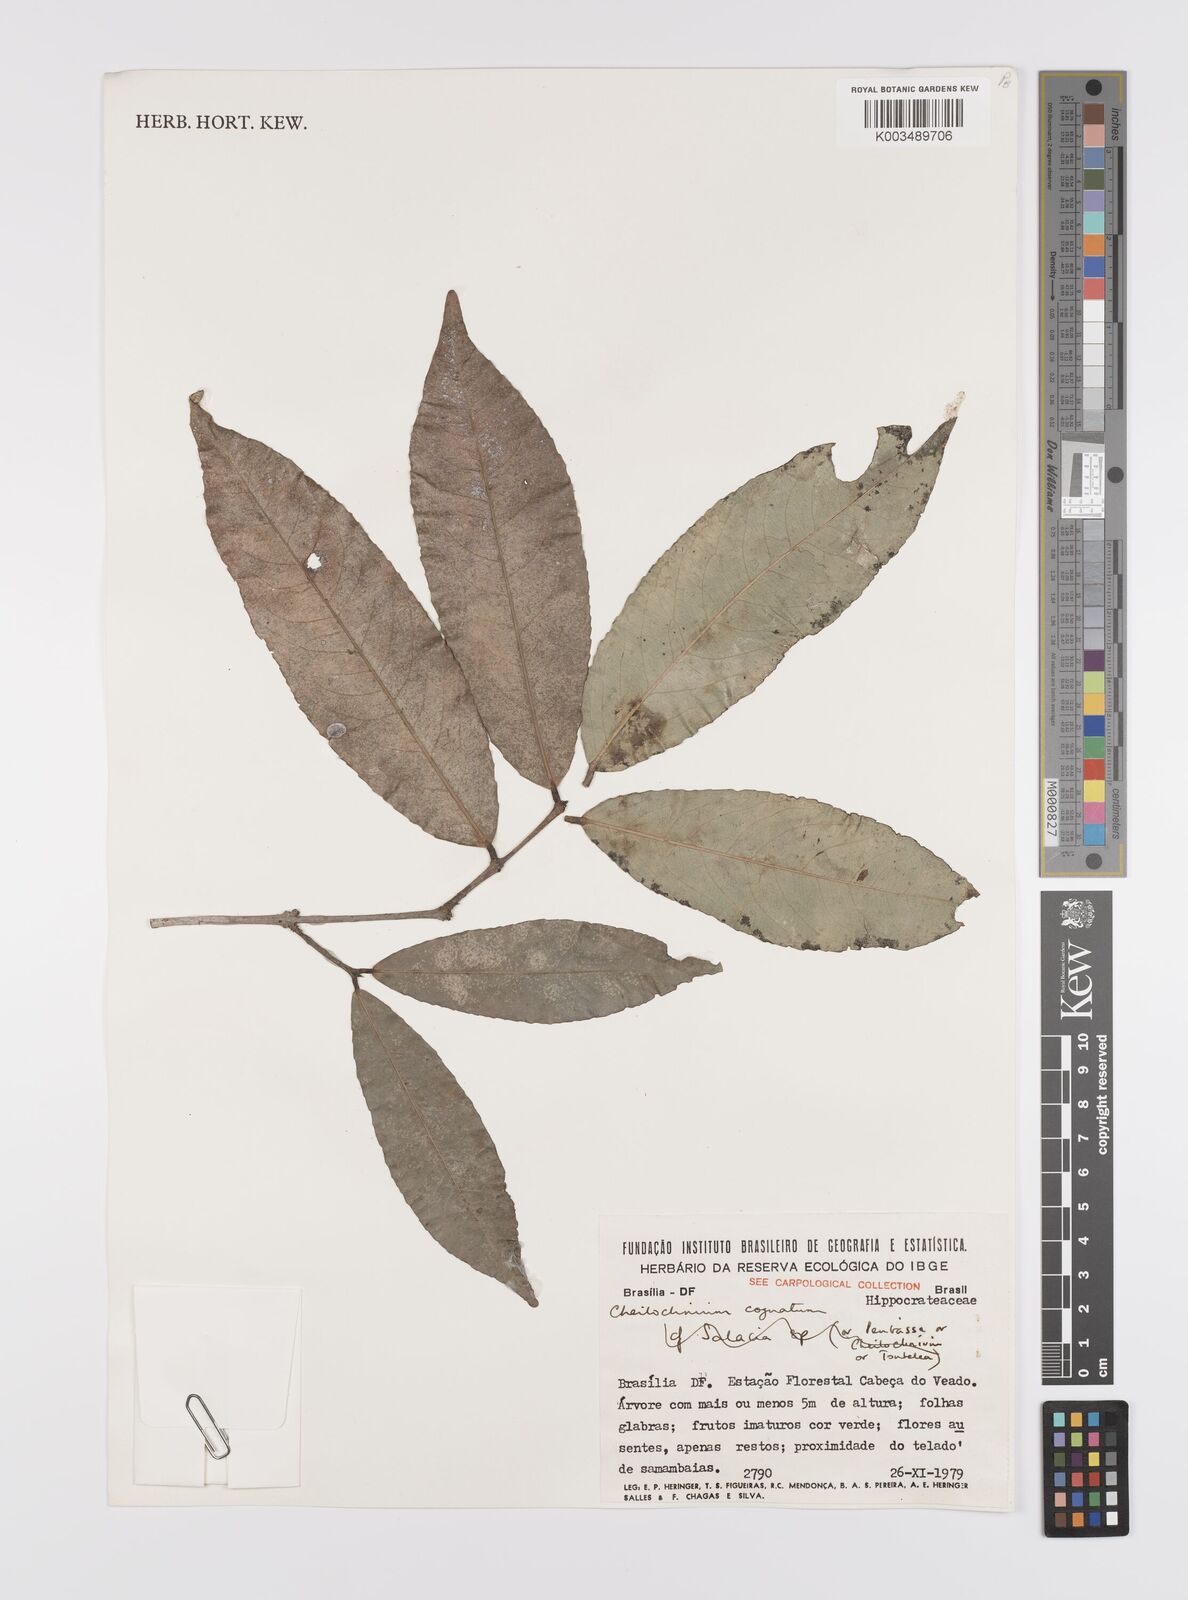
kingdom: Plantae
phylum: Tracheophyta
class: Magnoliopsida
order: Celastrales
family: Celastraceae
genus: Cheiloclinium
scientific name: Cheiloclinium cognatum
